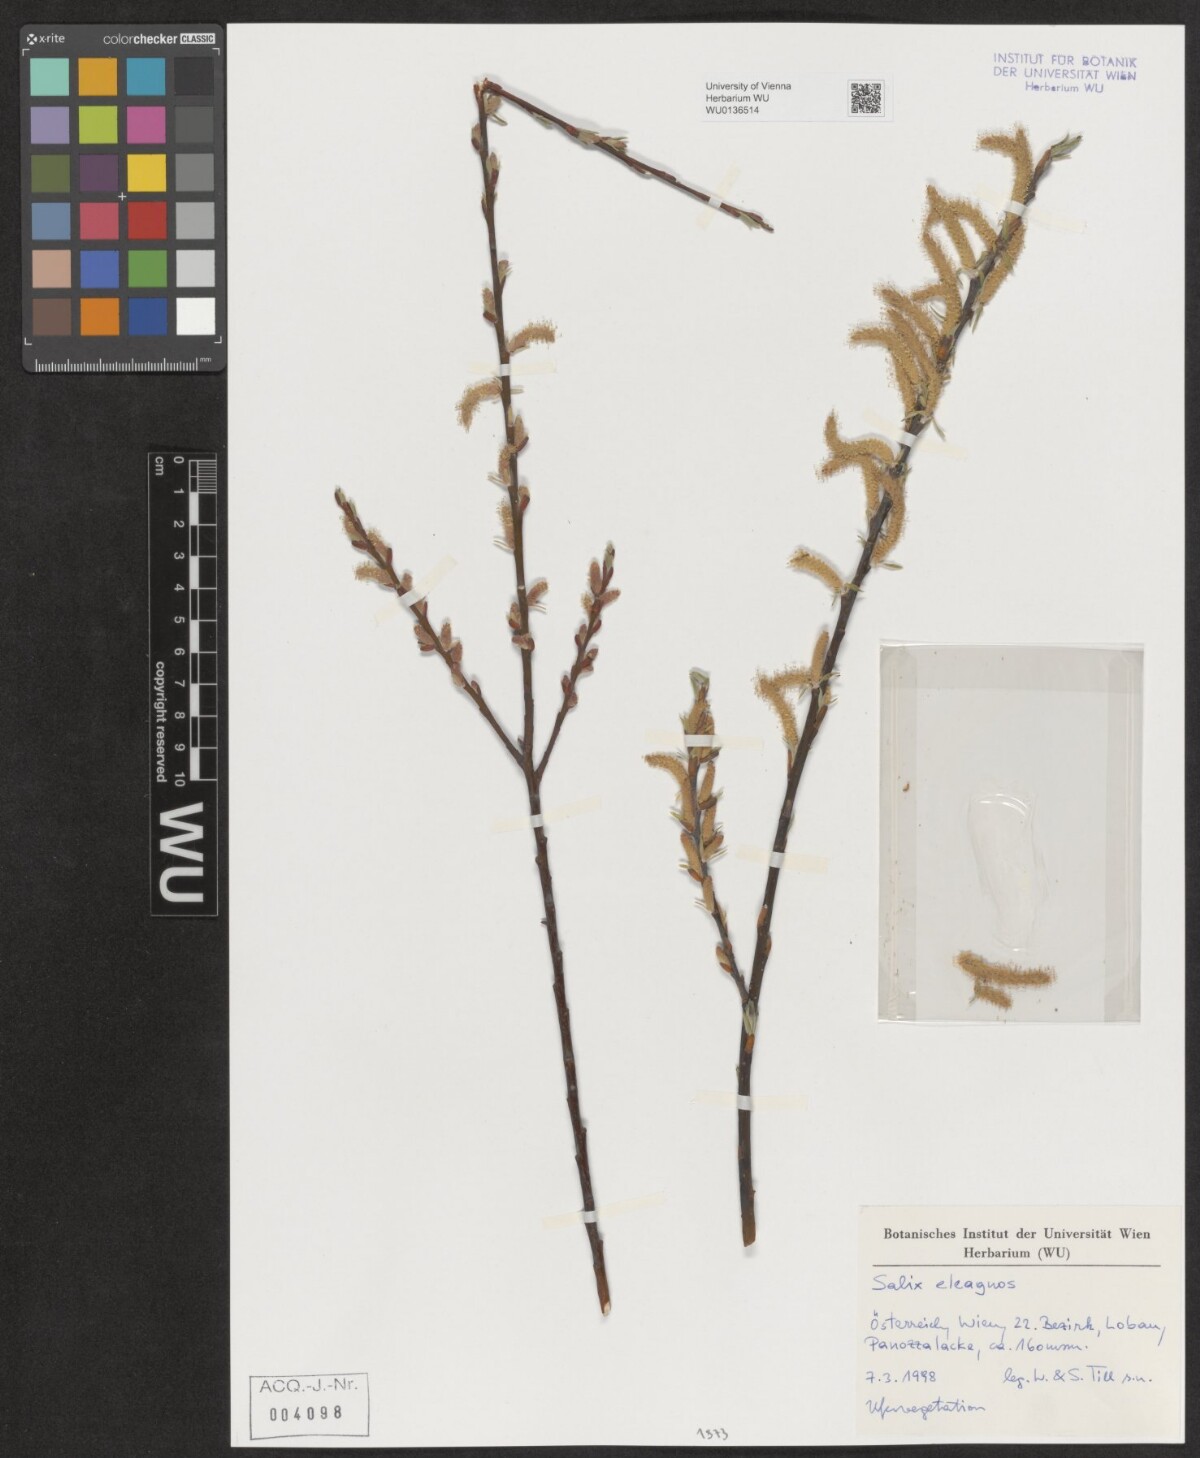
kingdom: Plantae
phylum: Tracheophyta
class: Magnoliopsida
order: Malpighiales
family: Salicaceae
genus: Salix
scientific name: Salix eleagnos
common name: Elaeagnus willow
